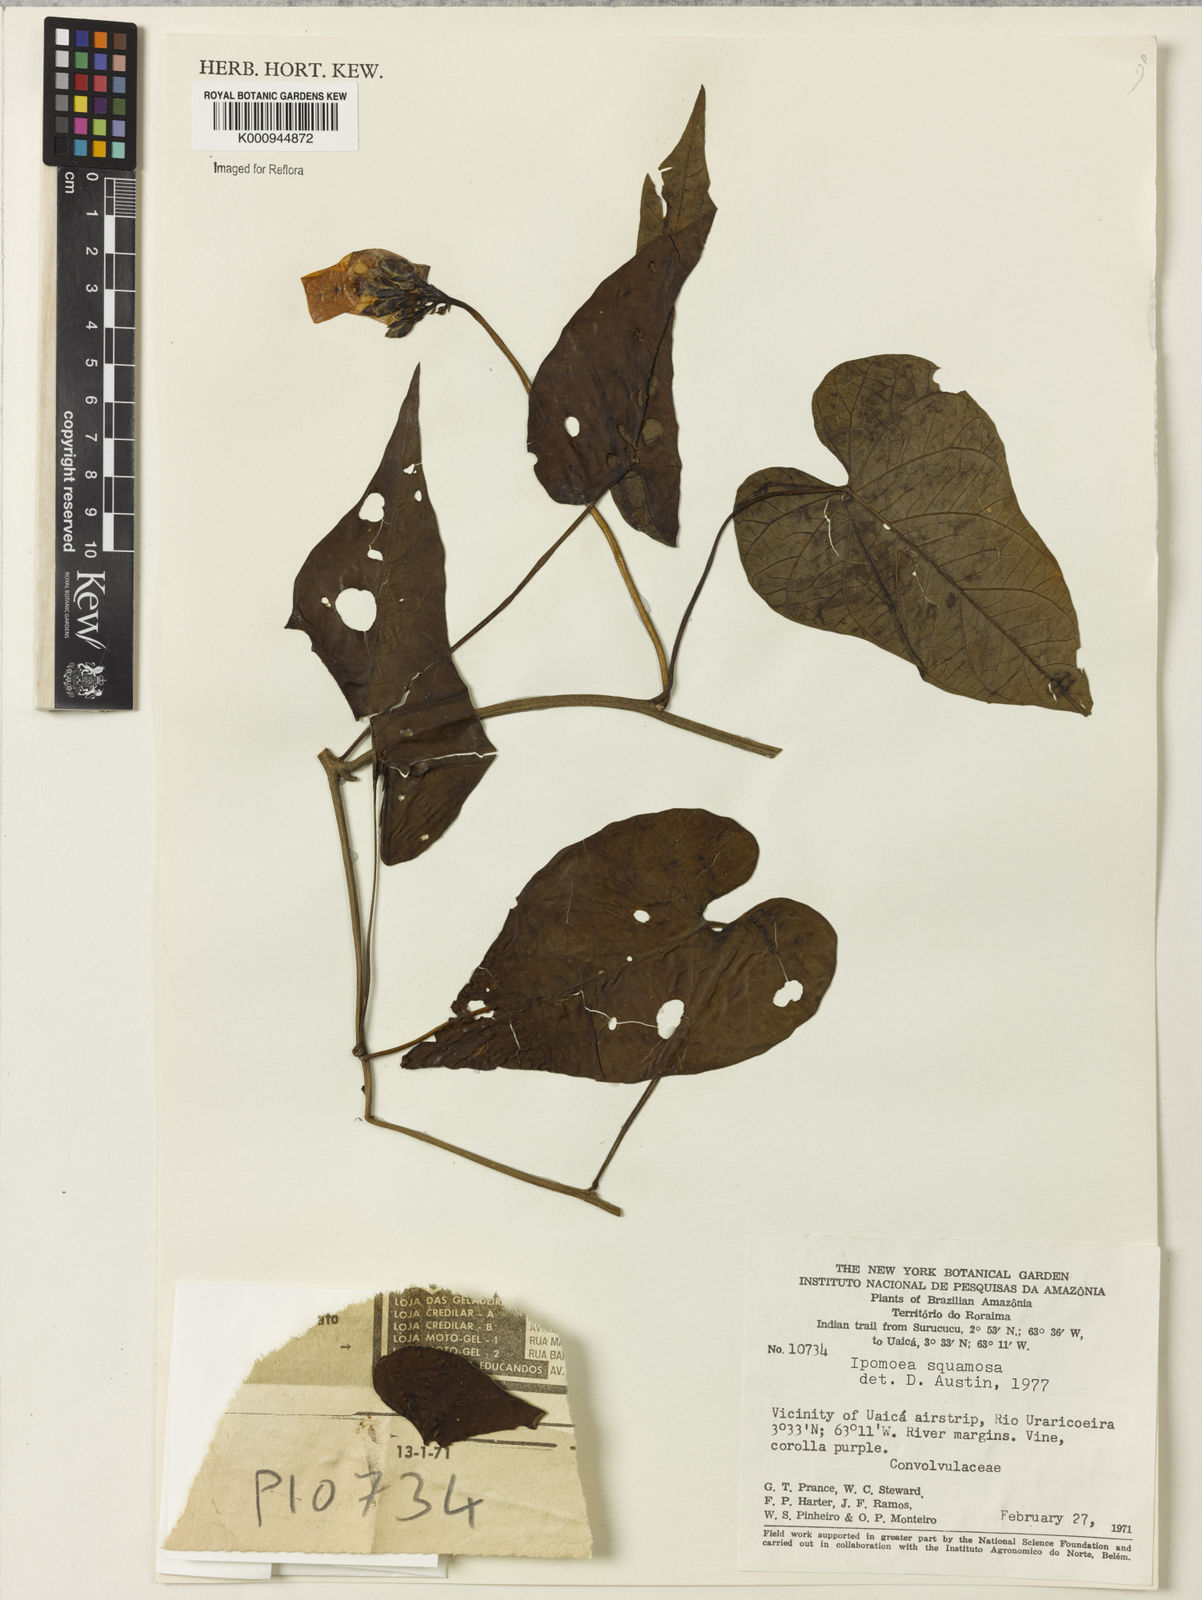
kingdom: Plantae
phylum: Tracheophyta
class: Magnoliopsida
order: Solanales
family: Convolvulaceae
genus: Ipomoea
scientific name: Ipomoea squamosa
